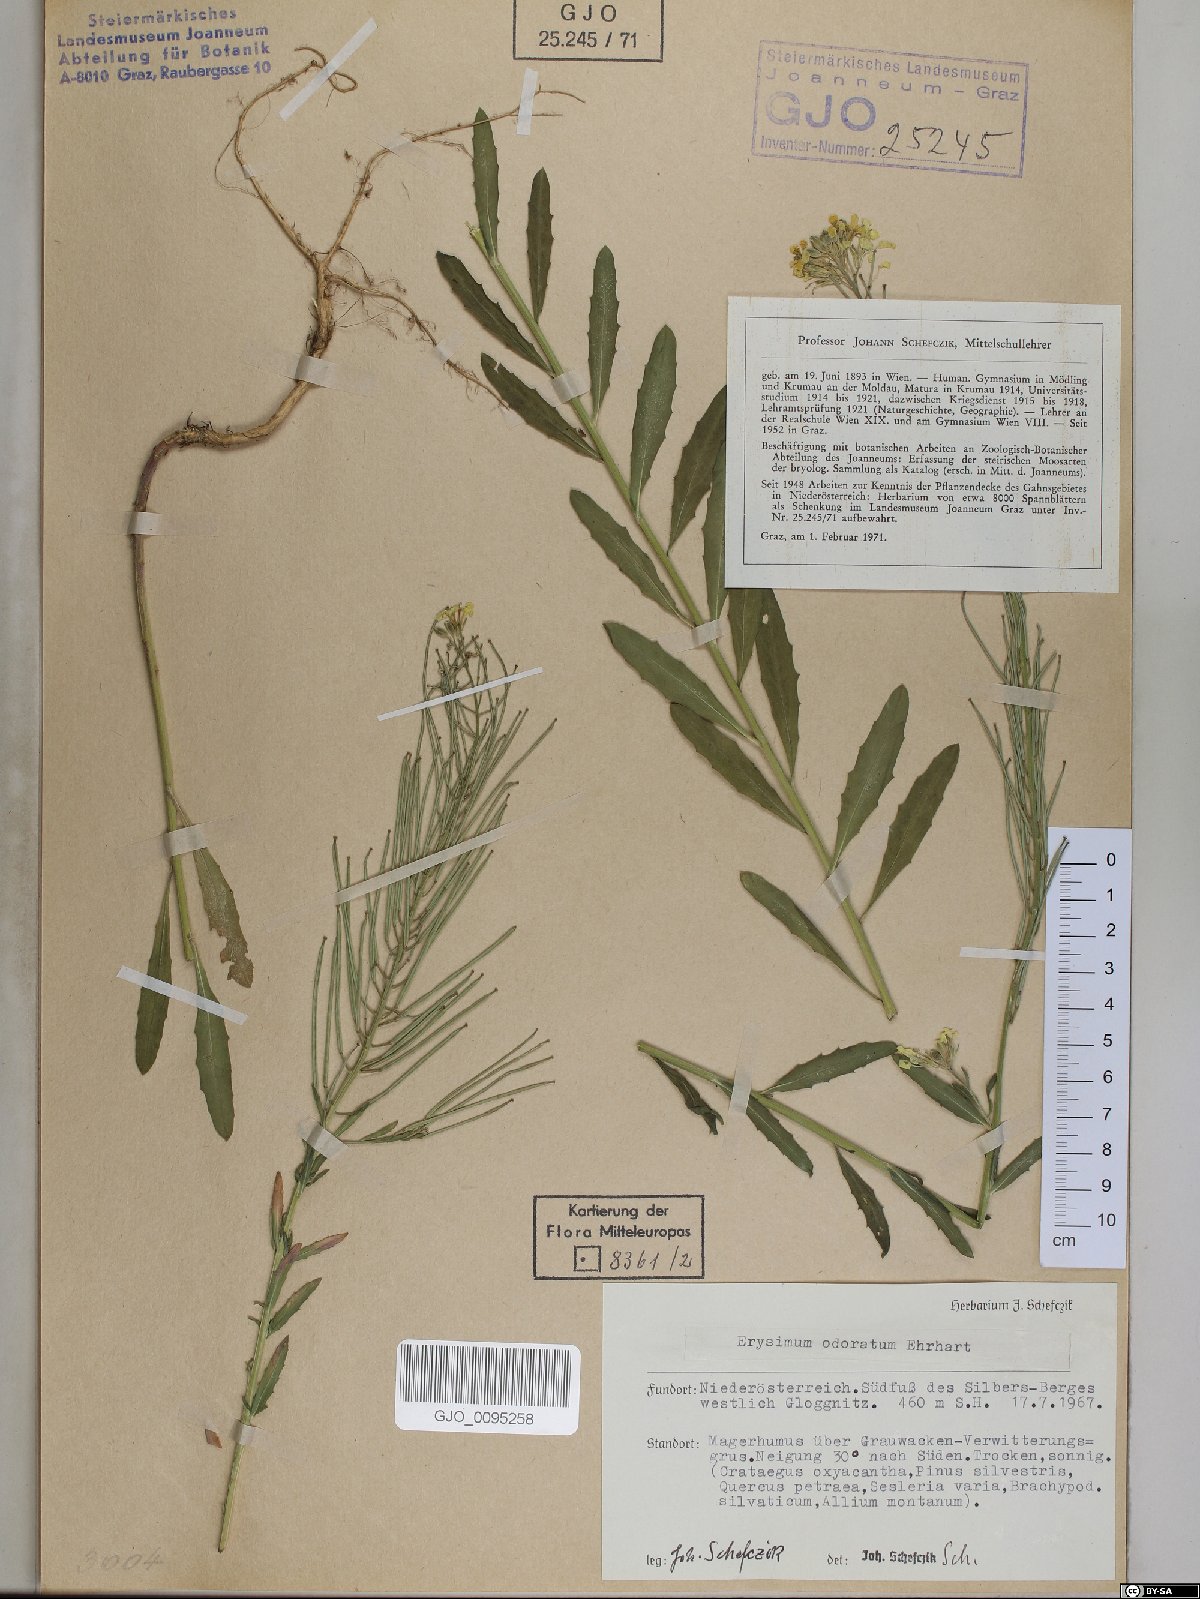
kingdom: Plantae
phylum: Tracheophyta
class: Magnoliopsida
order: Brassicales
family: Brassicaceae
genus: Erysimum
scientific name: Erysimum odoratum
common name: Smelly wallflower
